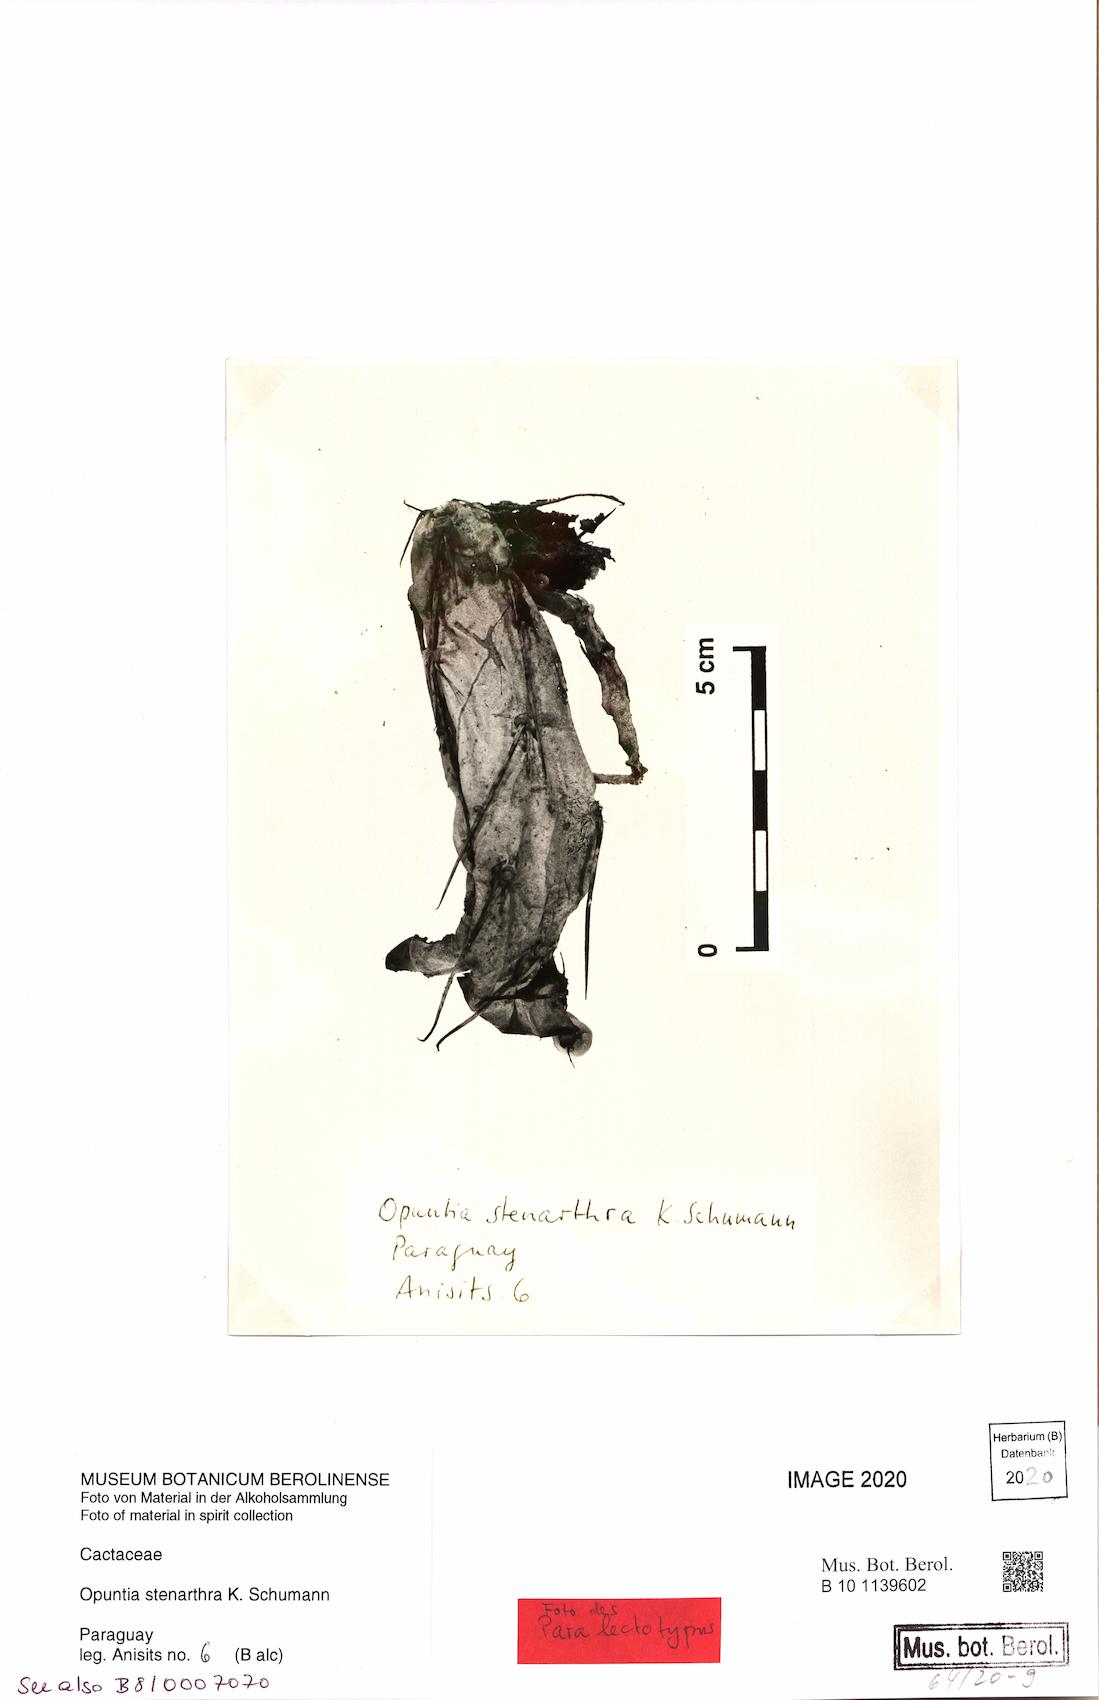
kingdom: Plantae
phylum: Tracheophyta
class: Magnoliopsida
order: Caryophyllales
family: Cactaceae
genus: Opuntia
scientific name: Opuntia stenarthra
